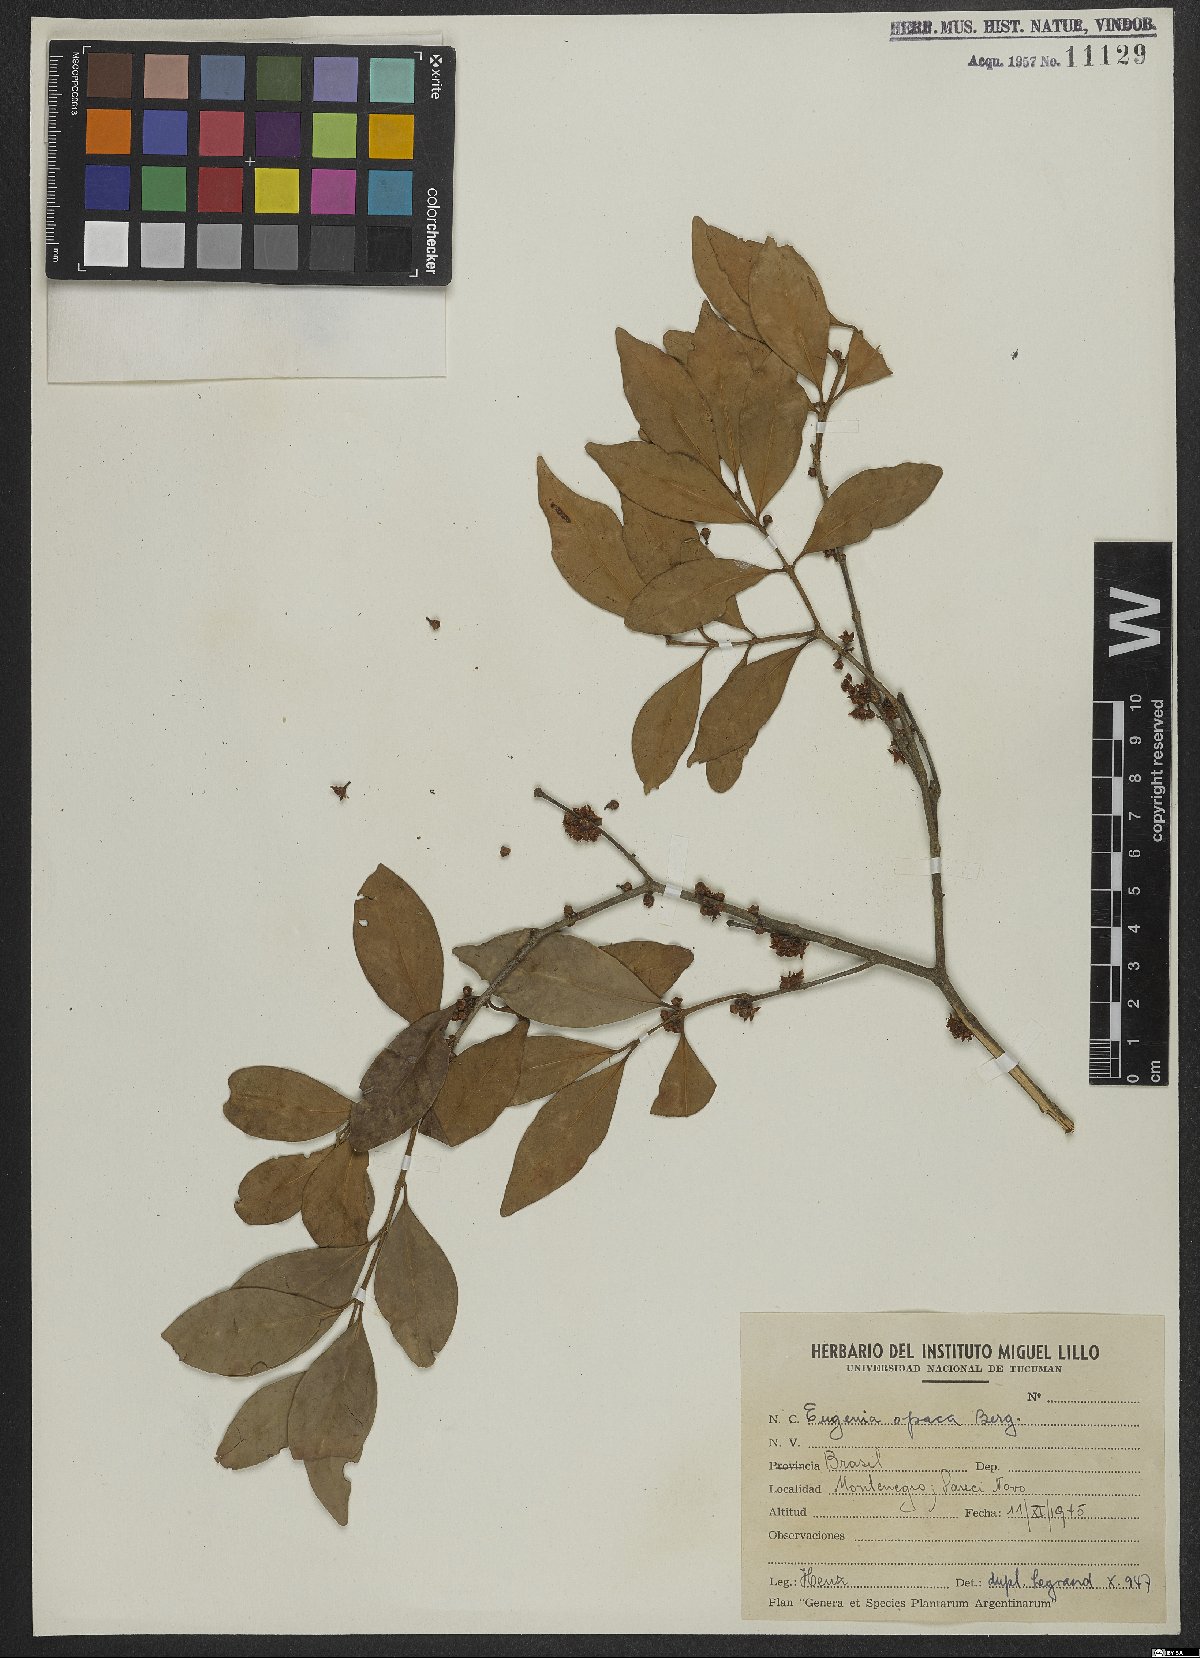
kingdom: Plantae
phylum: Tracheophyta
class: Magnoliopsida
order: Myrtales
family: Myrtaceae
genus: Eugenia
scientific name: Eugenia uruguayensis
